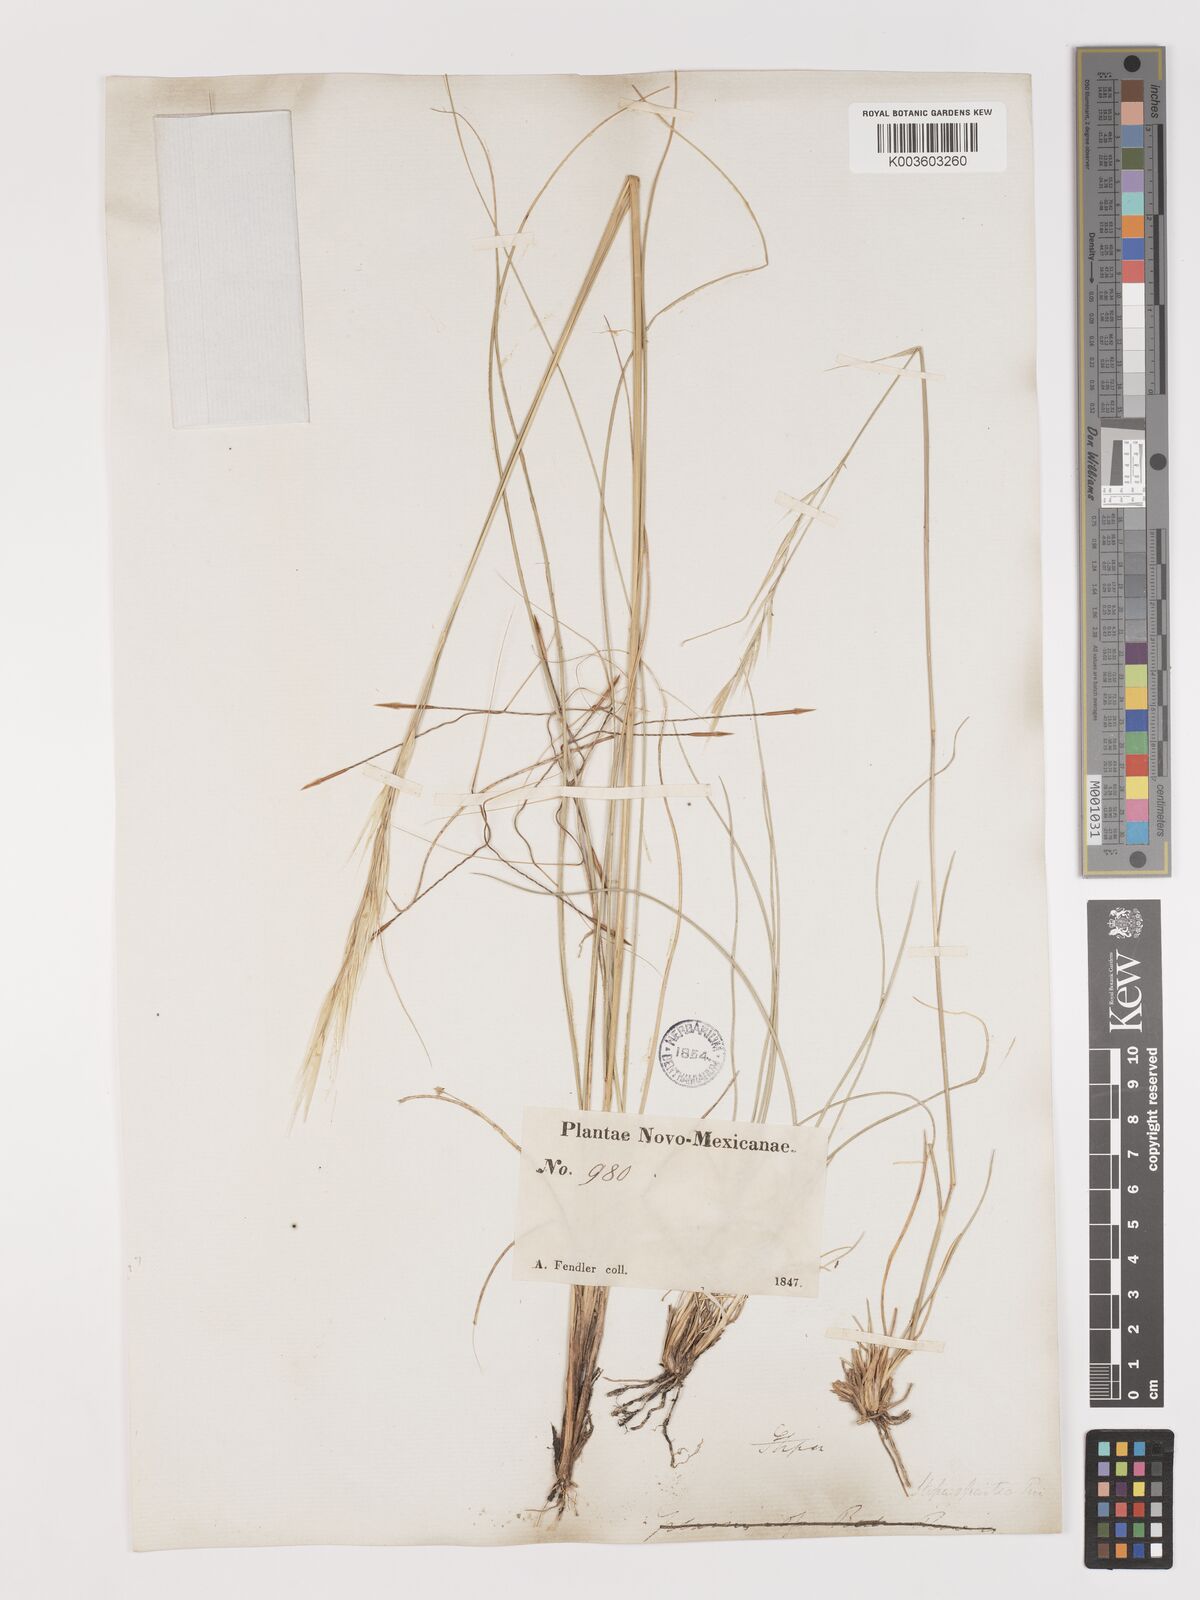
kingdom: Plantae
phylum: Tracheophyta
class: Liliopsida
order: Poales
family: Poaceae
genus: Hesperostipa
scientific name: Hesperostipa spartea
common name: Porcupine grass
